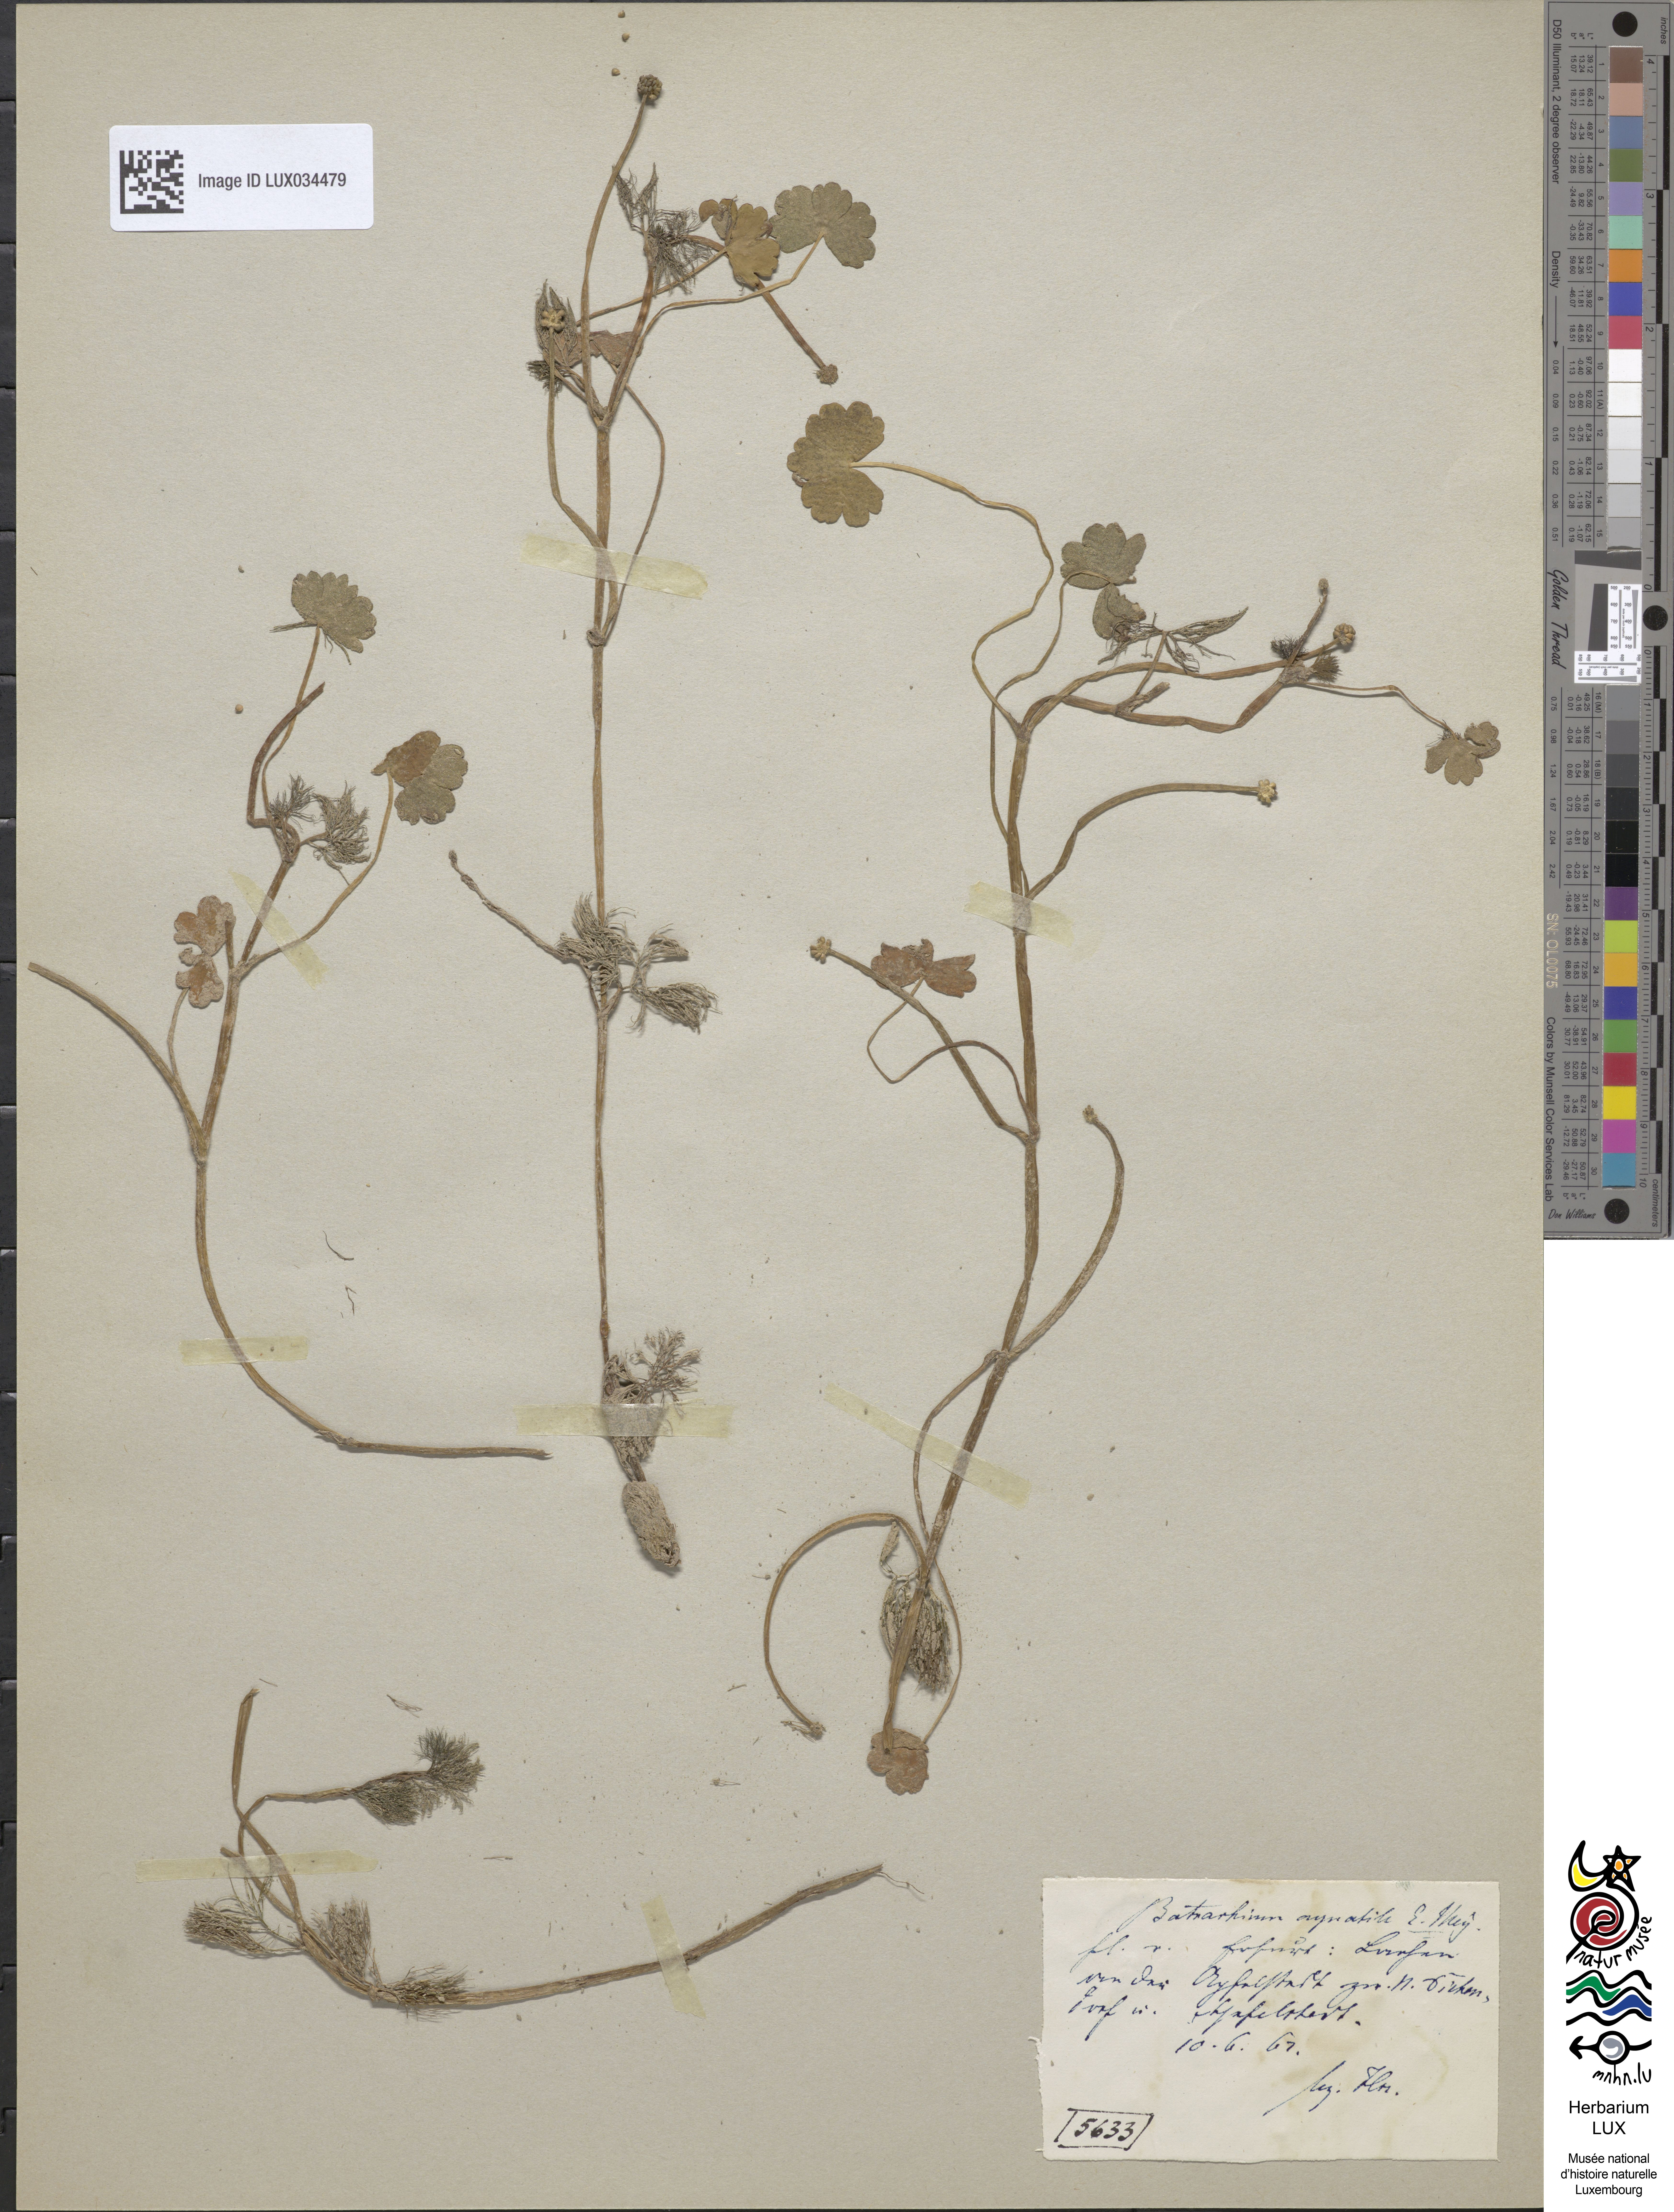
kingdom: Plantae
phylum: Tracheophyta
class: Magnoliopsida
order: Ranunculales
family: Ranunculaceae
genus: Ranunculus
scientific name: Ranunculus aquatilis
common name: Common water-crowfoot
